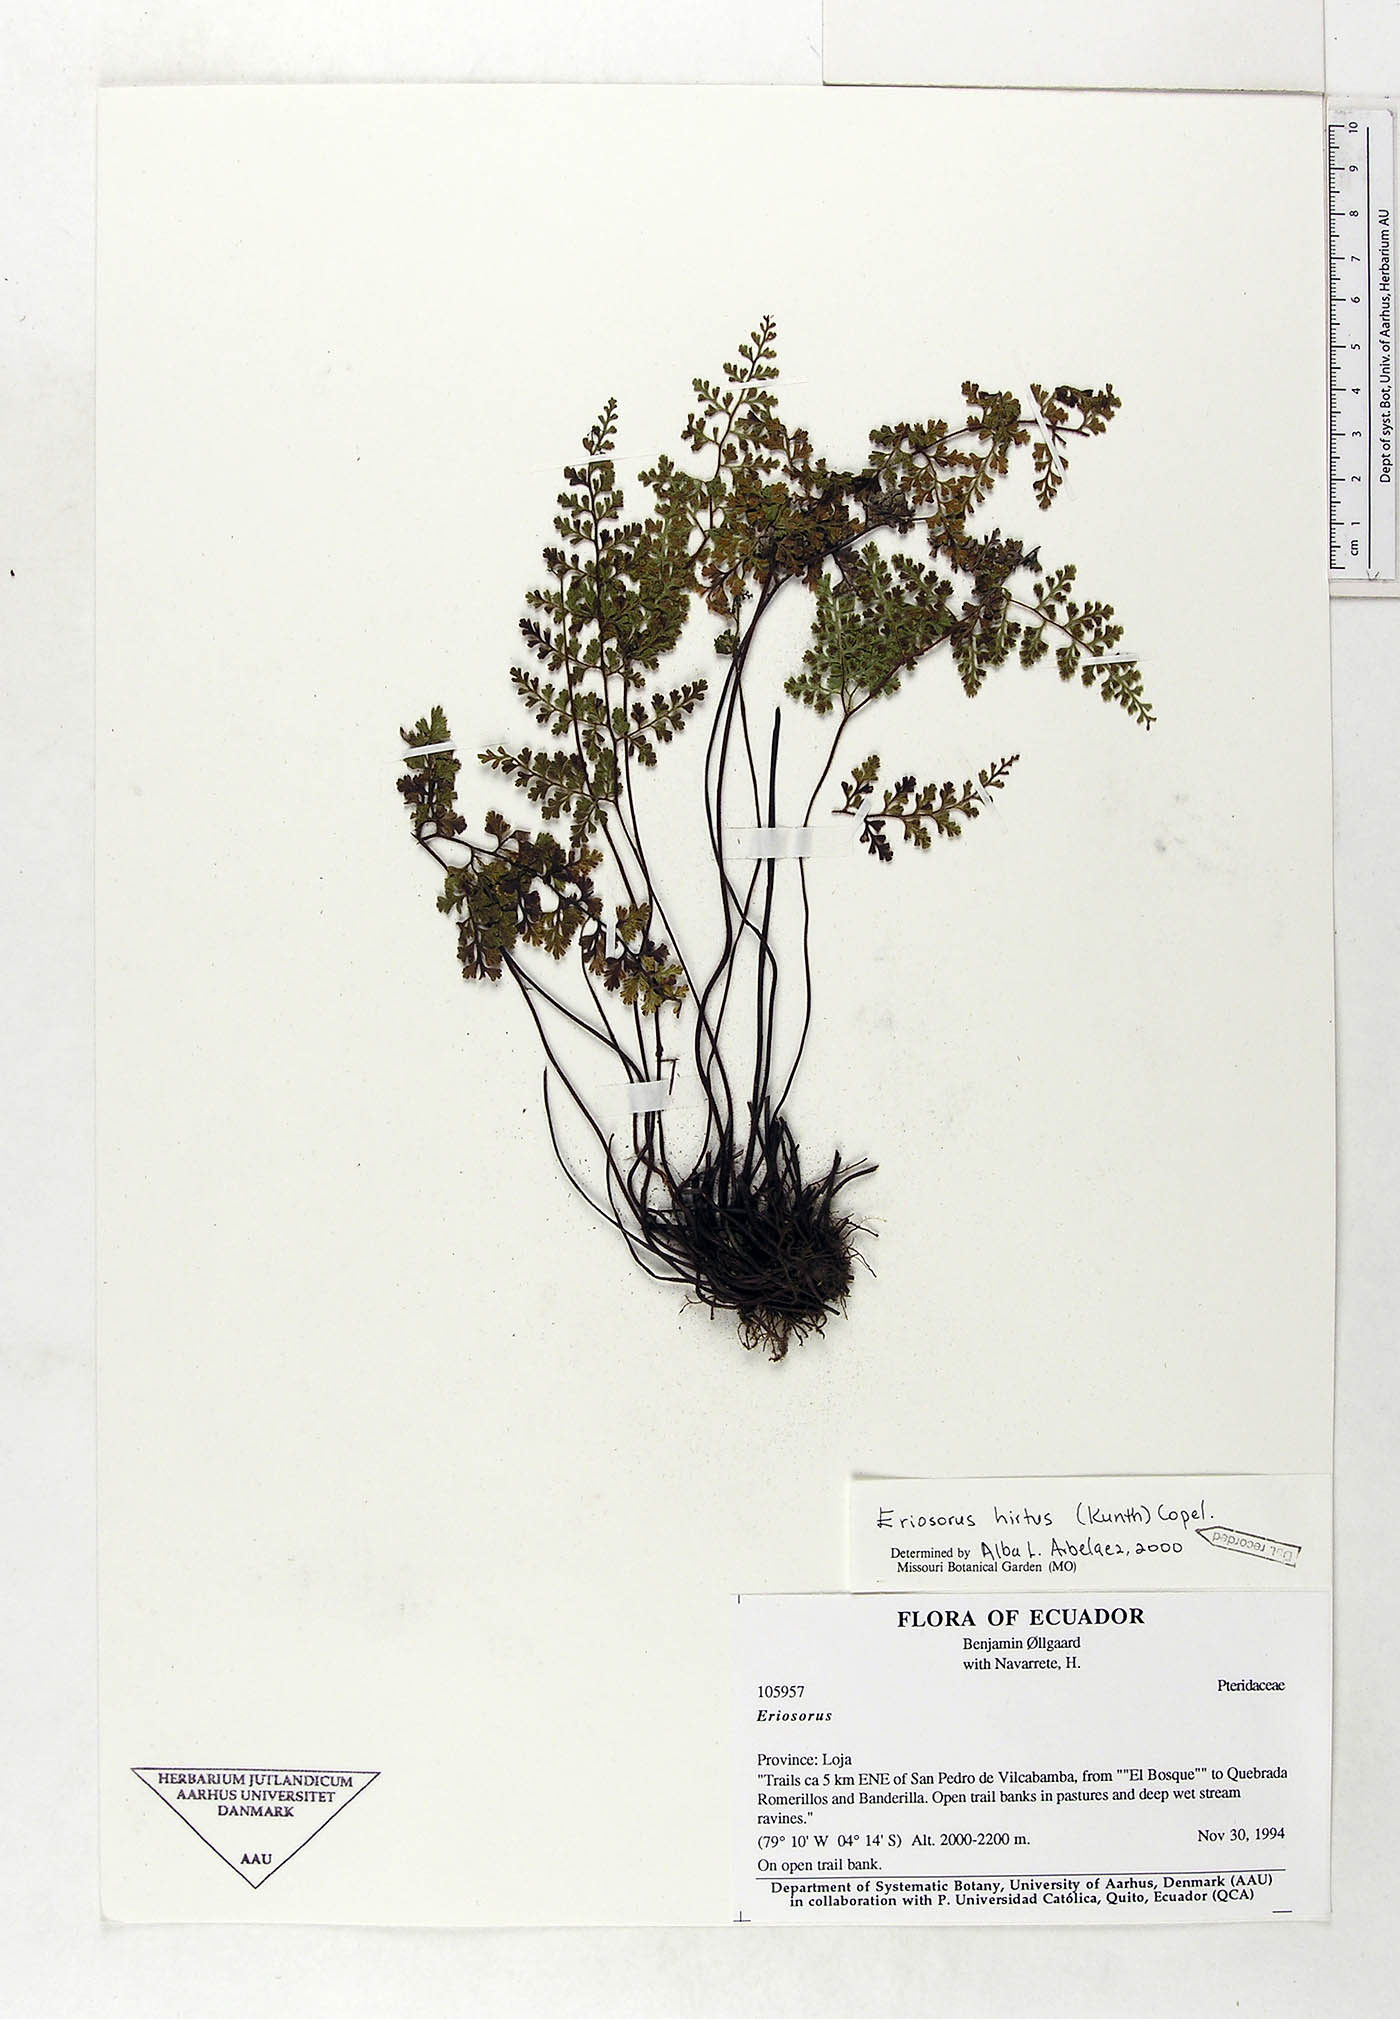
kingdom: Plantae
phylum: Tracheophyta
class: Polypodiopsida
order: Polypodiales
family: Pteridaceae
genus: Jamesonia
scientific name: Jamesonia hirta
